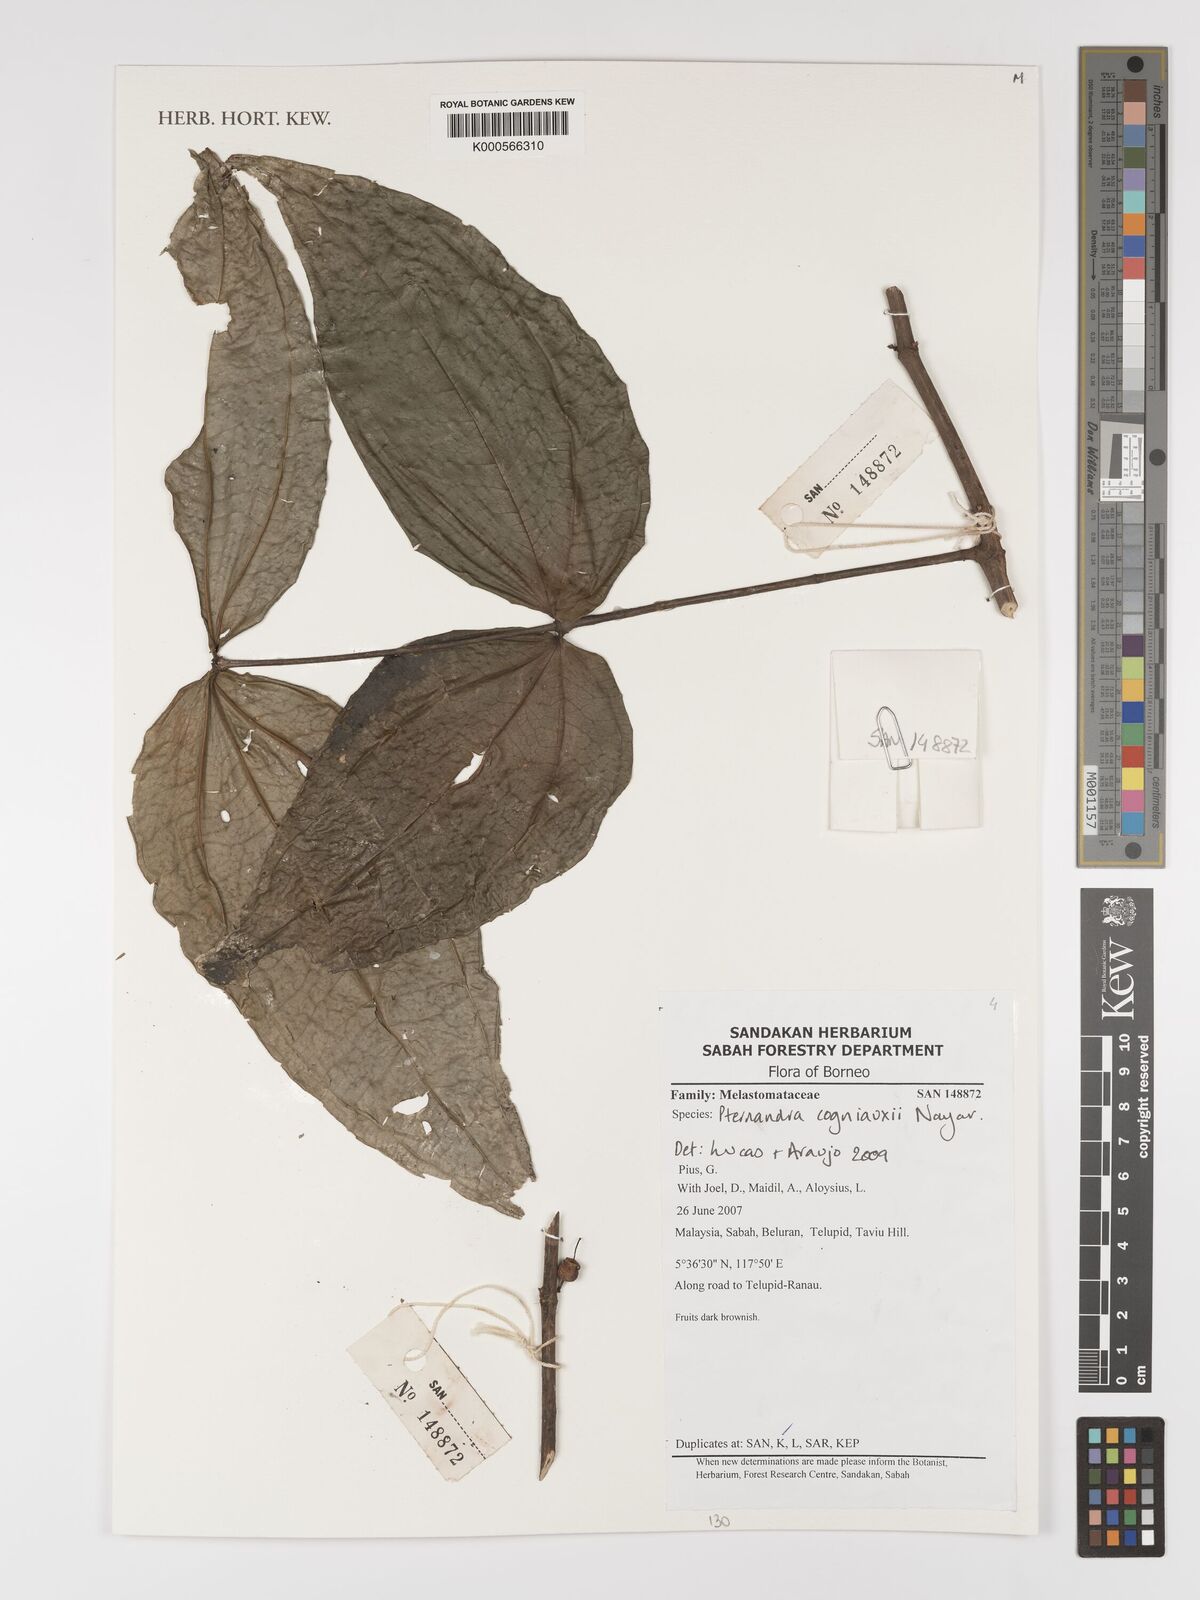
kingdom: Plantae
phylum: Tracheophyta
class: Magnoliopsida
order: Myrtales
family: Melastomataceae
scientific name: Melastomataceae
